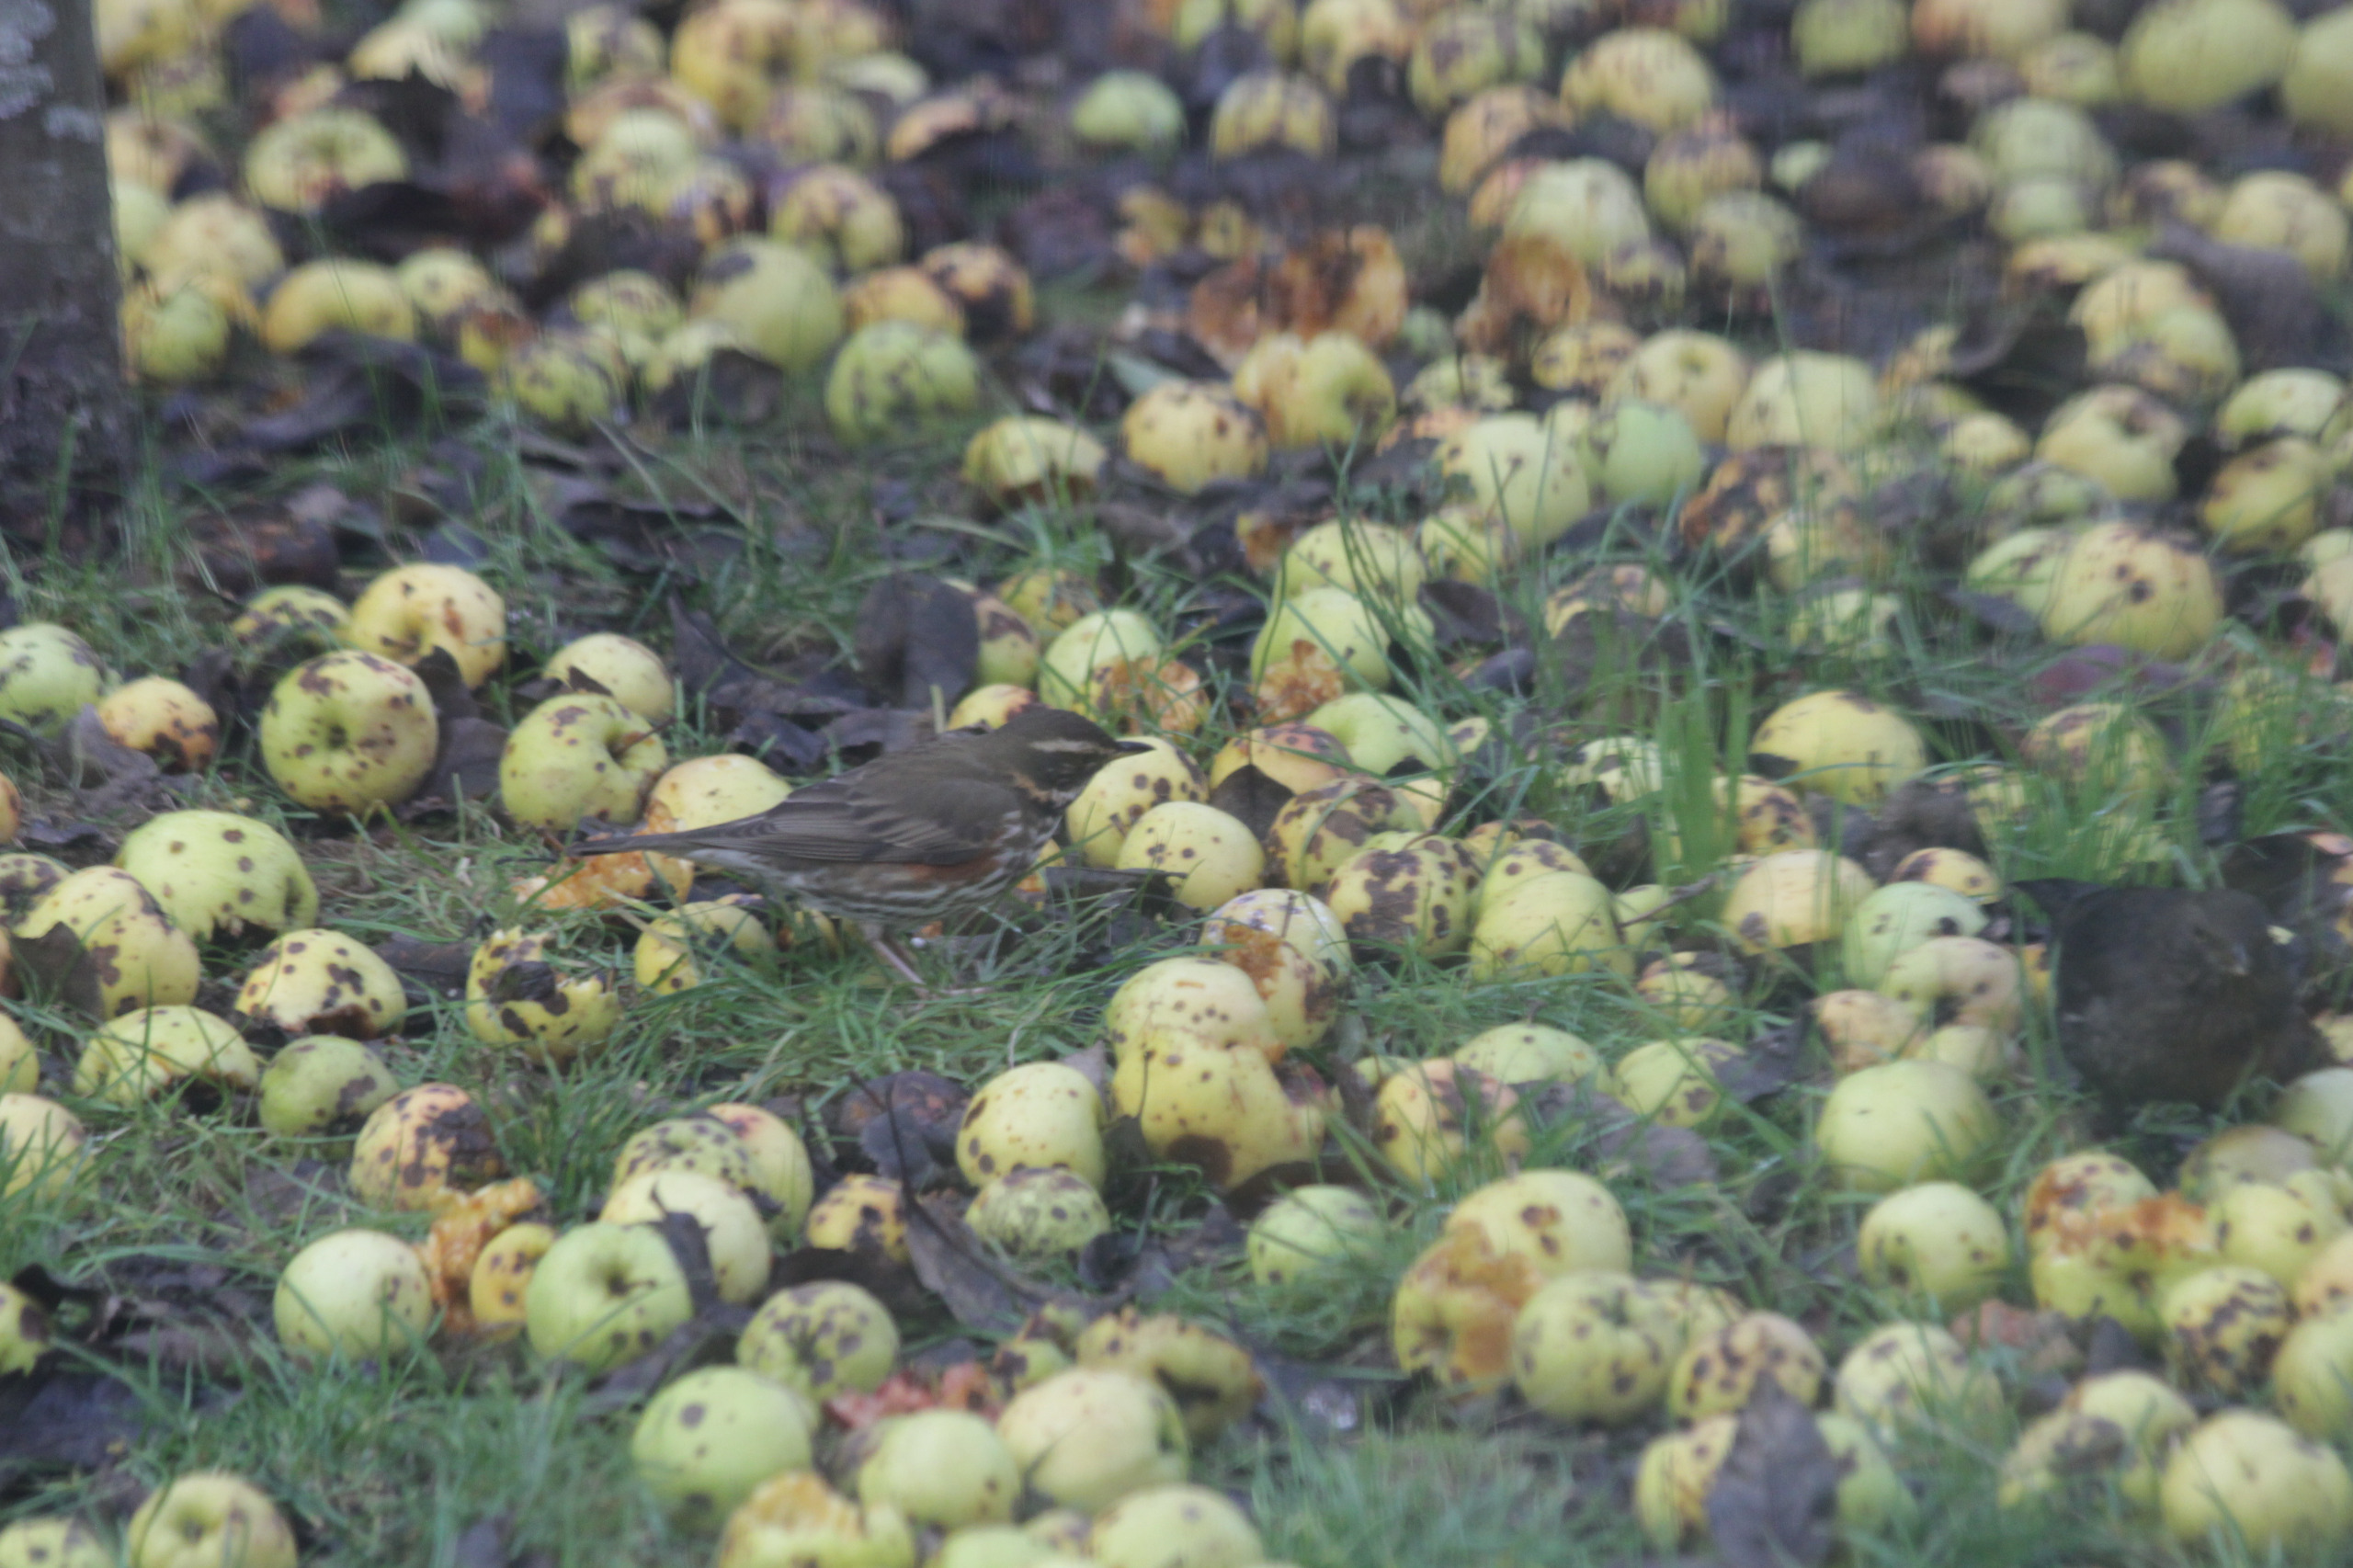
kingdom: Animalia
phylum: Chordata
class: Aves
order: Passeriformes
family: Turdidae
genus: Turdus
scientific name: Turdus iliacus
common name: Vindrossel
